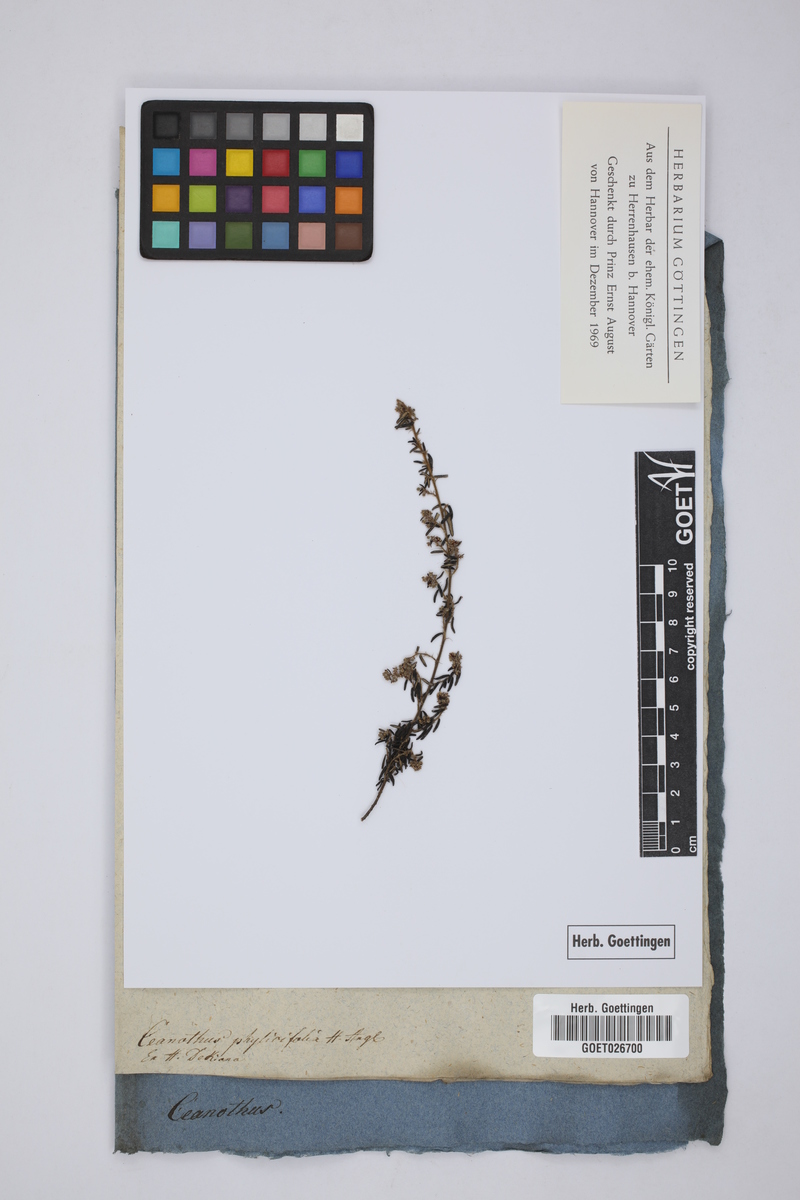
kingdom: Plantae
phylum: Tracheophyta
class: Magnoliopsida
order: Rosales
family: Rhamnaceae
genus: Ceanothus
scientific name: Ceanothus
